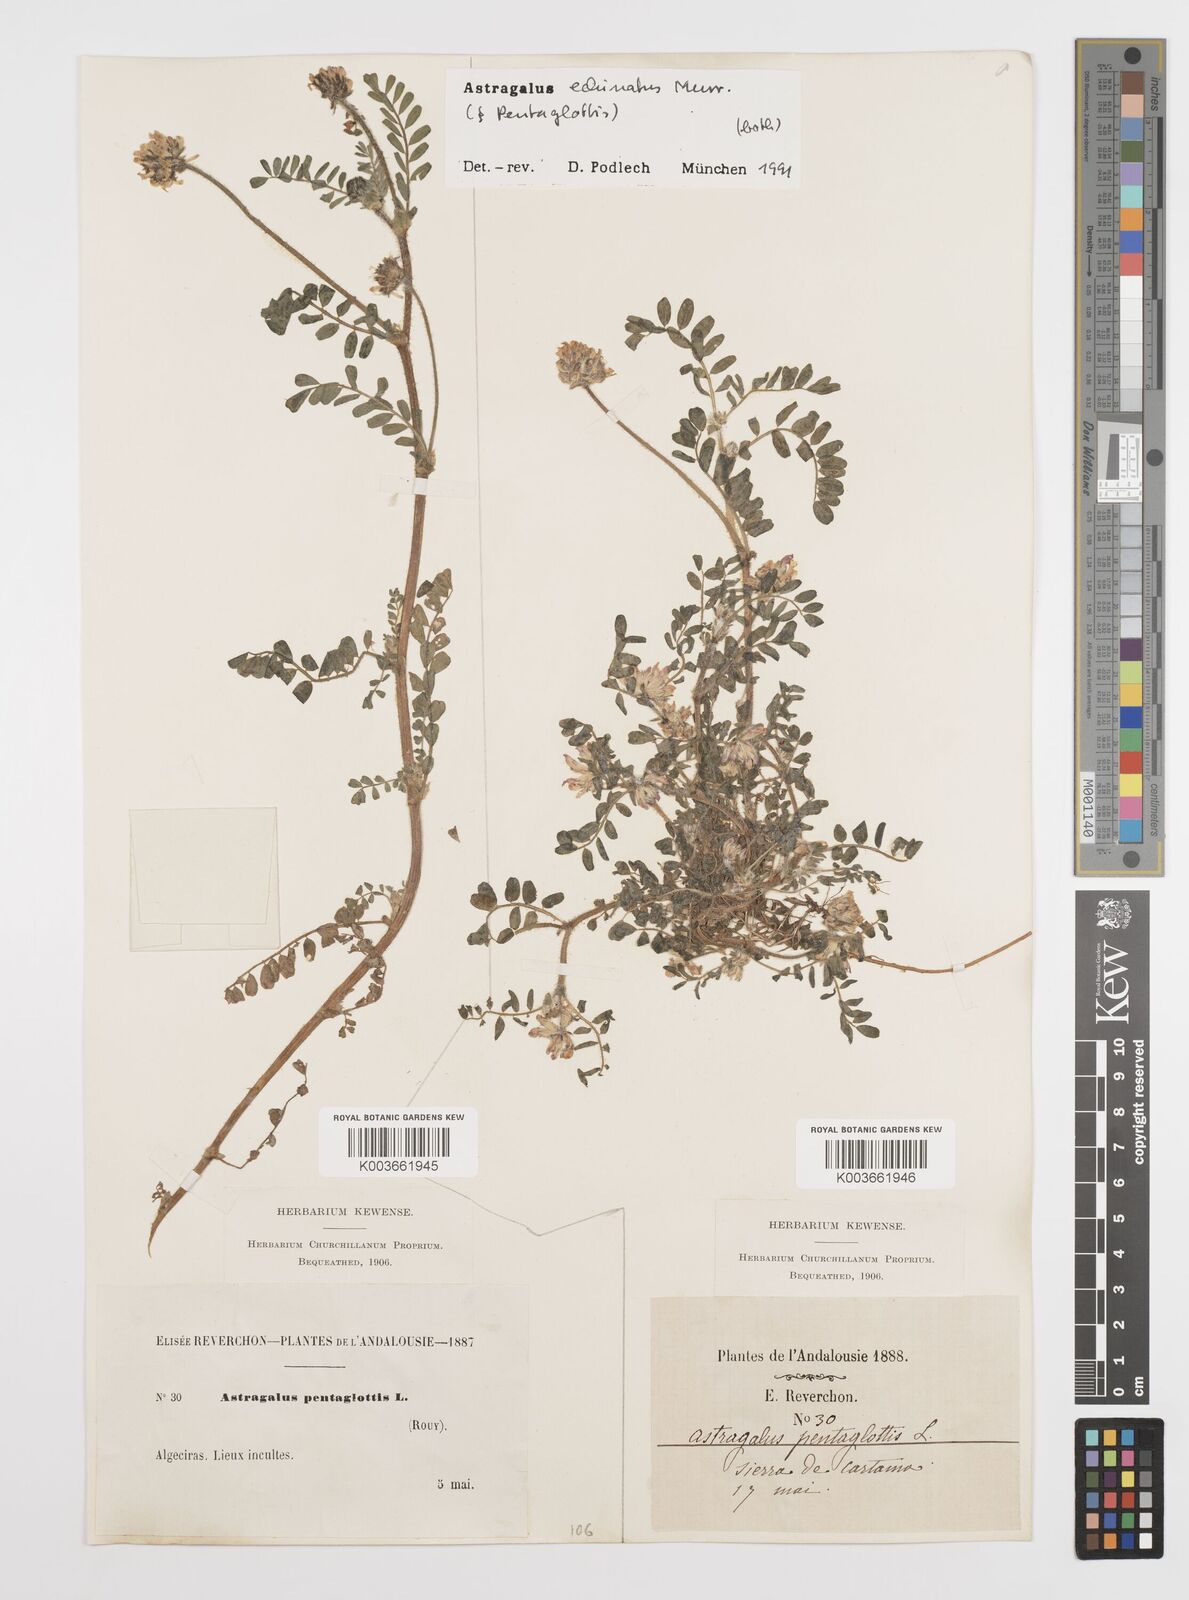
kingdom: Plantae
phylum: Tracheophyta
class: Magnoliopsida
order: Fabales
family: Fabaceae
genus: Astragalus
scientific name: Astragalus echinatus
